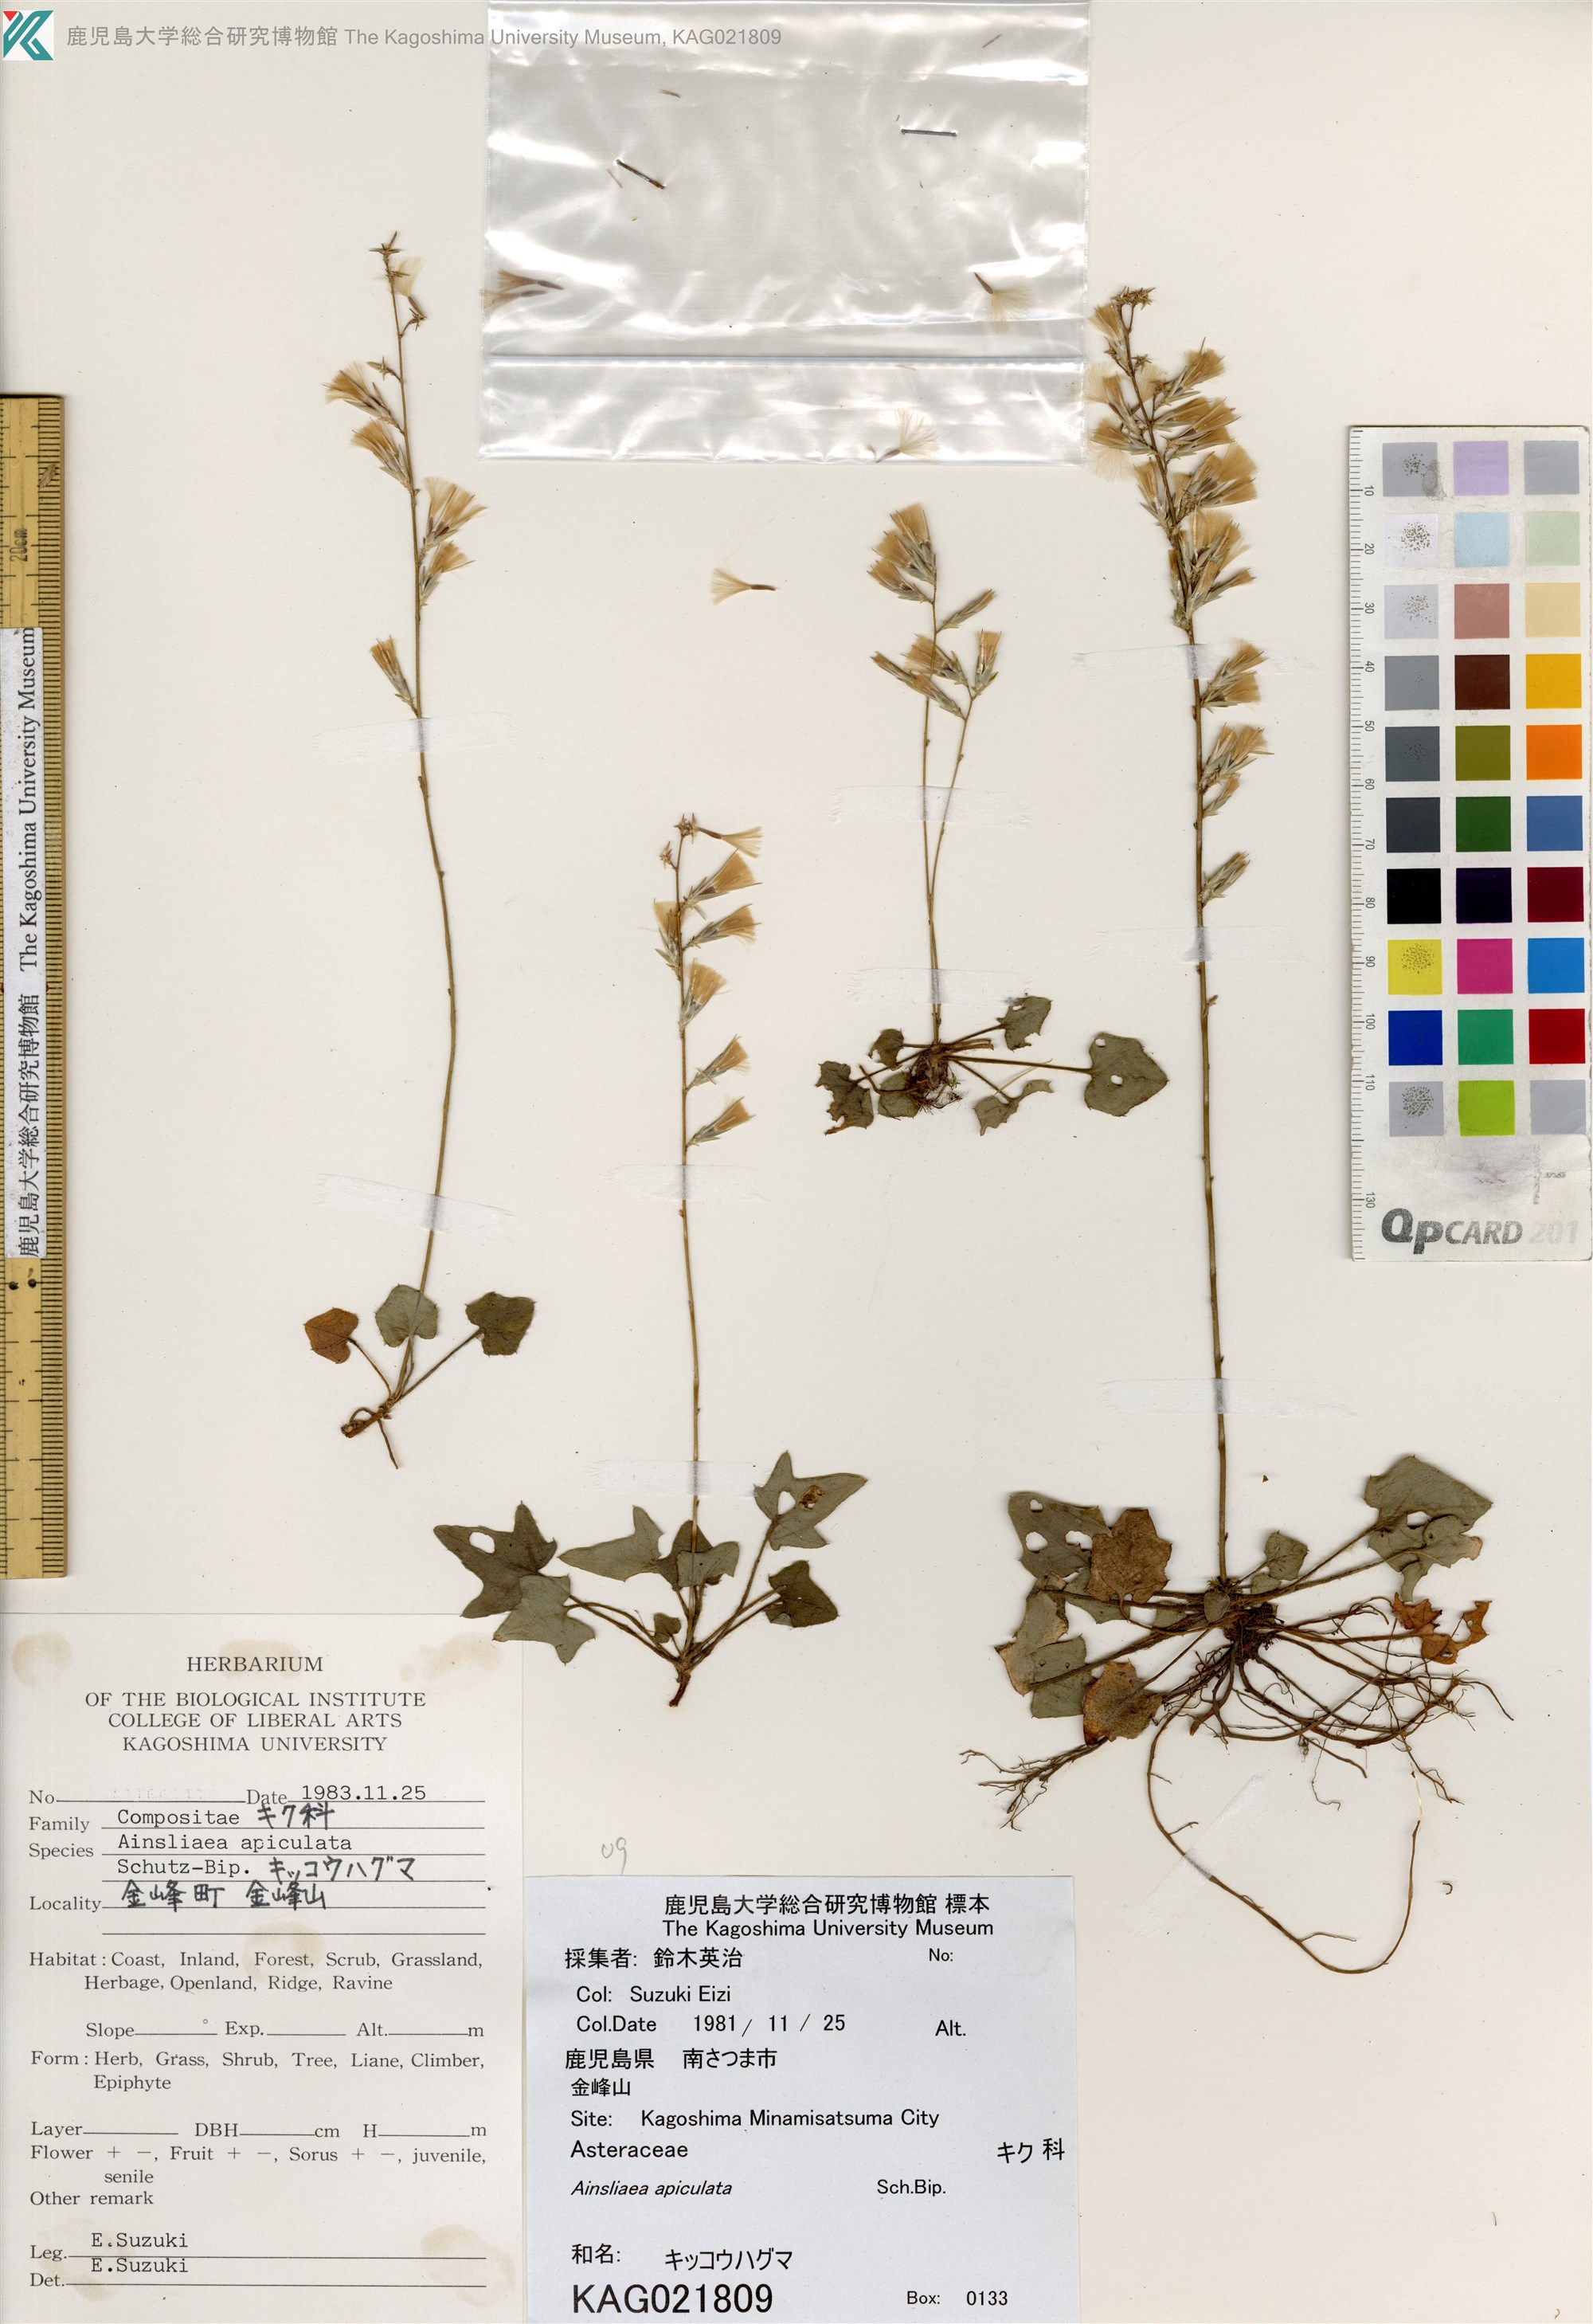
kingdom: Plantae
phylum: Tracheophyta
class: Magnoliopsida
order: Asterales
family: Asteraceae
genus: Ainsliaea
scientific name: Ainsliaea apiculata
